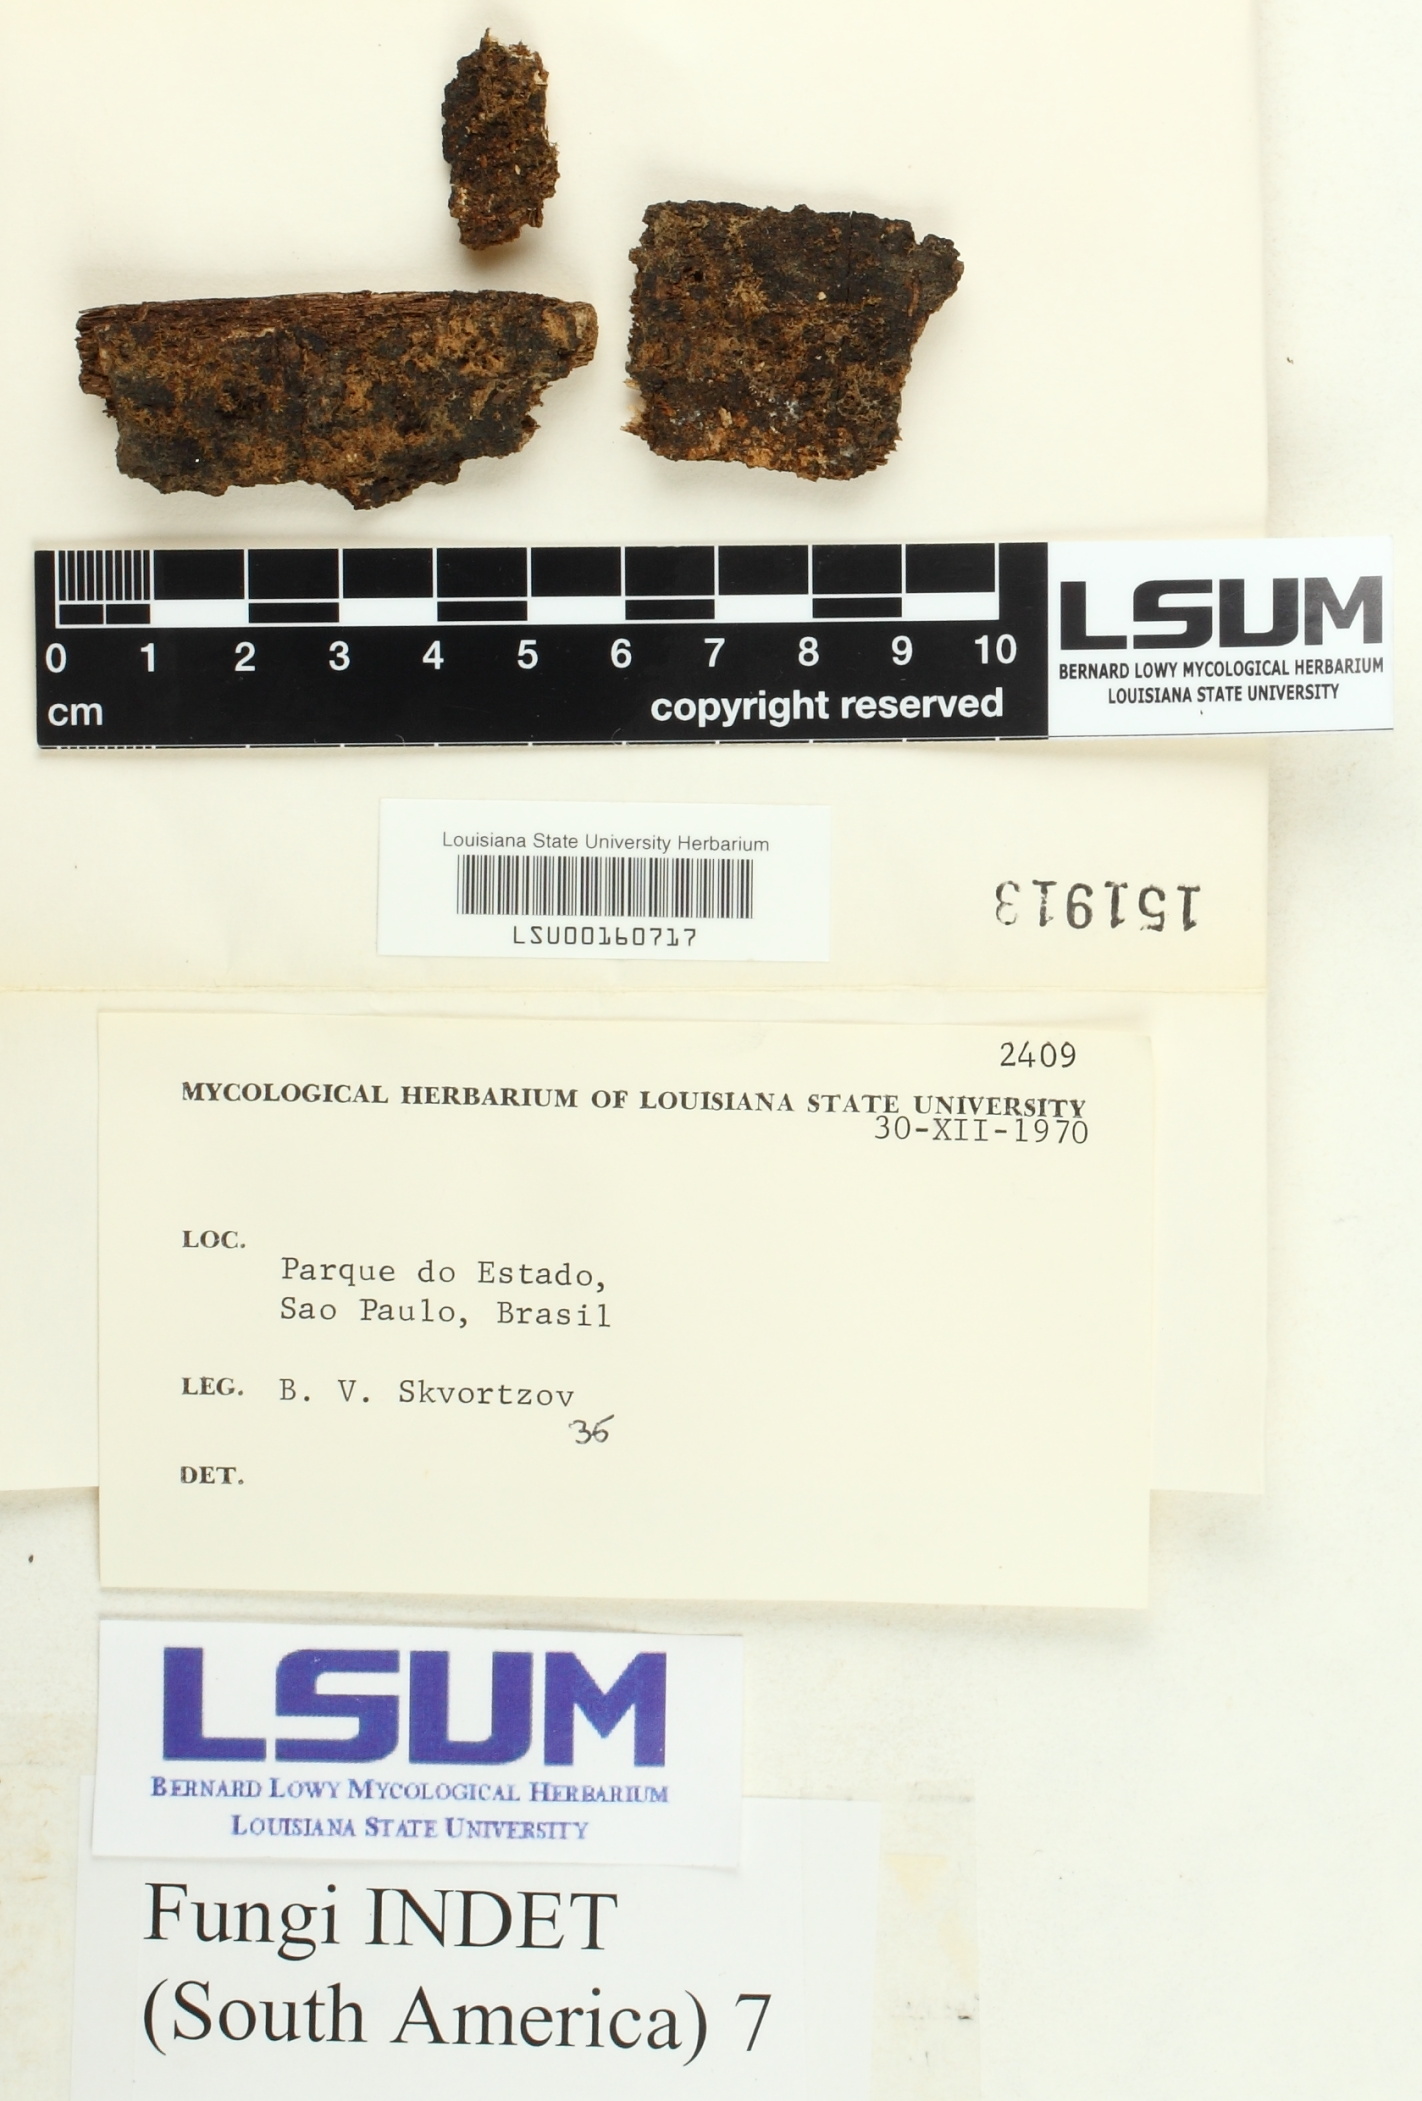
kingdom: Fungi
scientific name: Fungi
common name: Fungi
